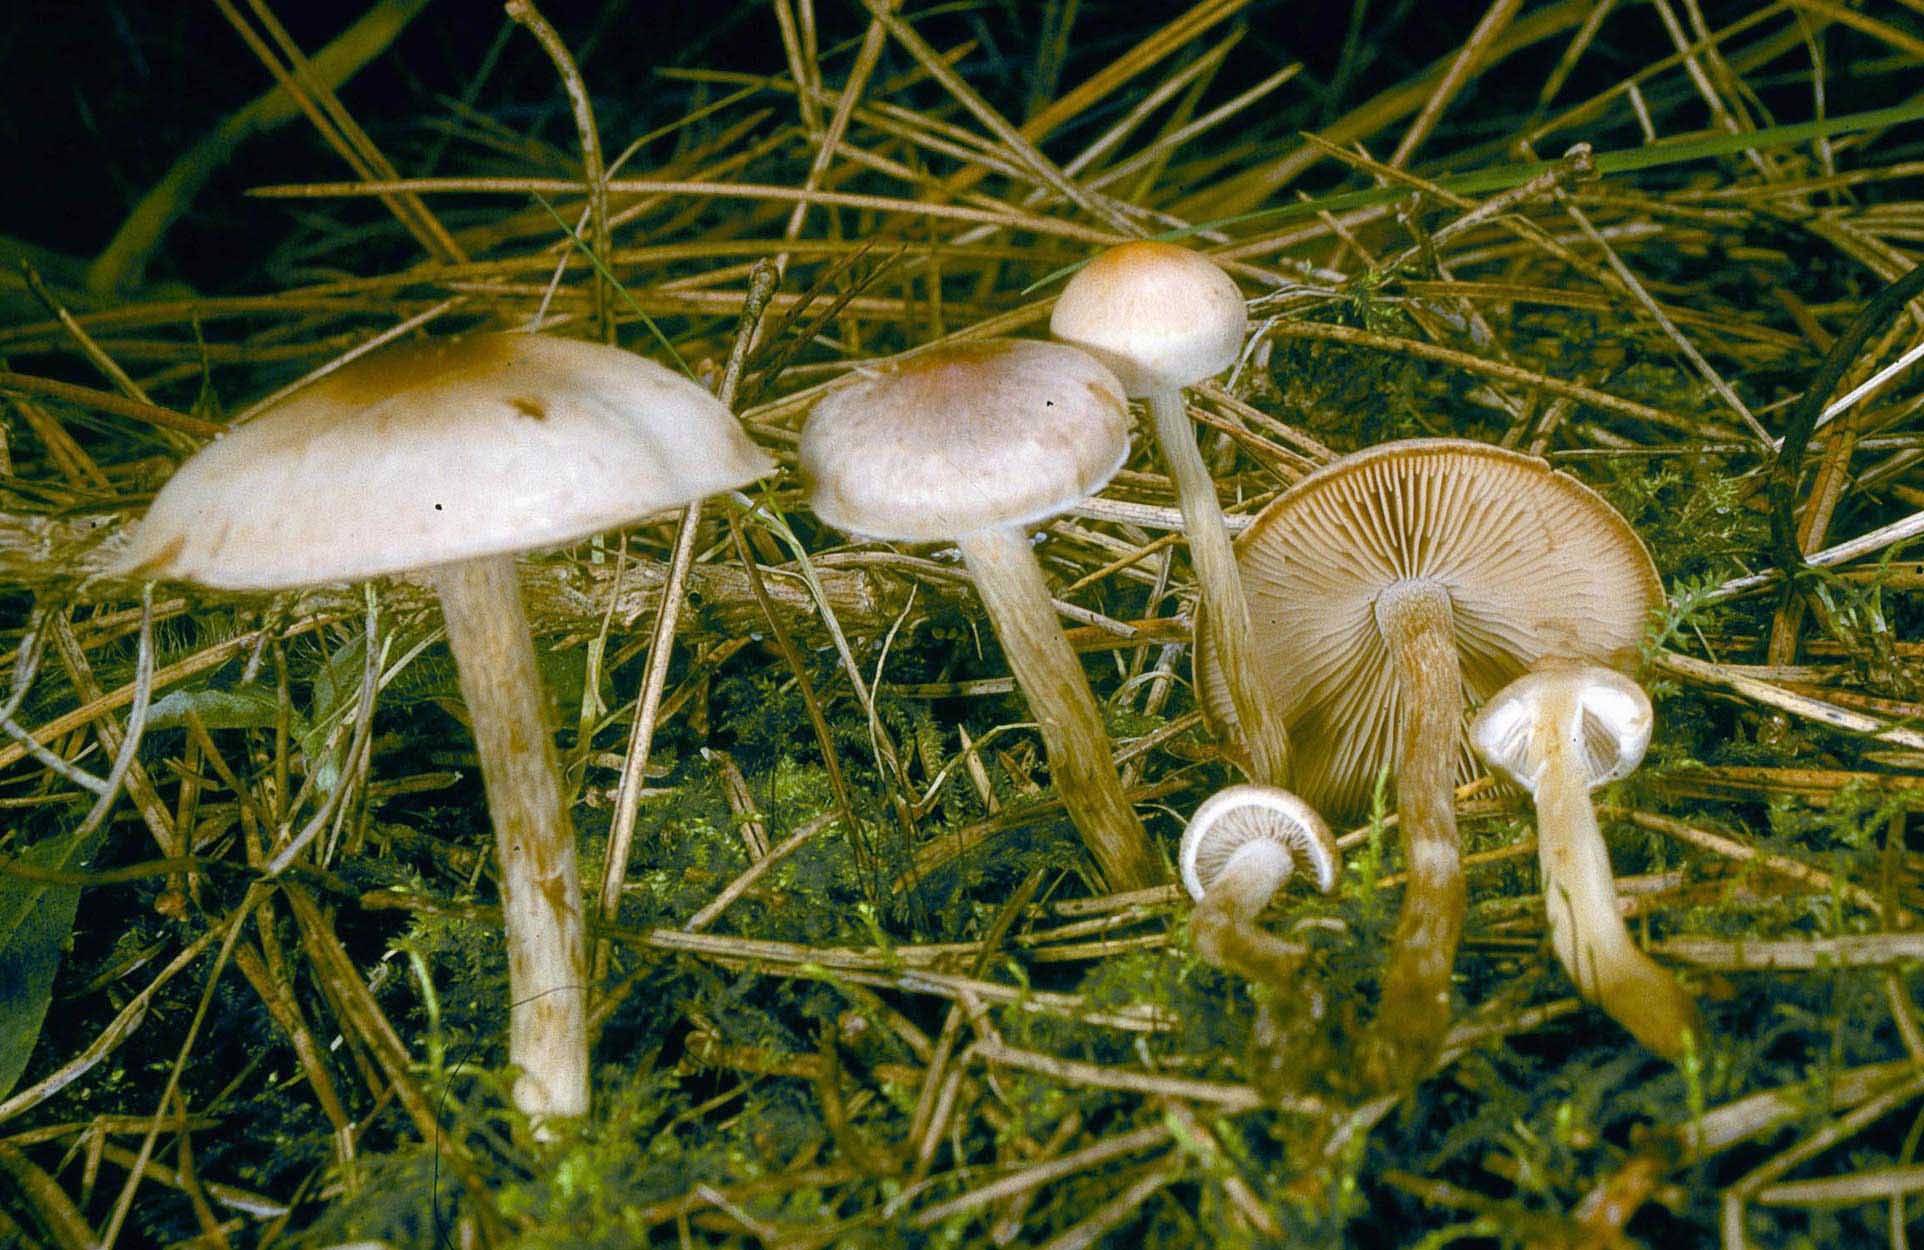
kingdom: Fungi
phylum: Basidiomycota
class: Agaricomycetes
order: Agaricales
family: Hymenogastraceae
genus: Hebeloma
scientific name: Hebeloma mesophaeum
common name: lerbrun tåreblad
